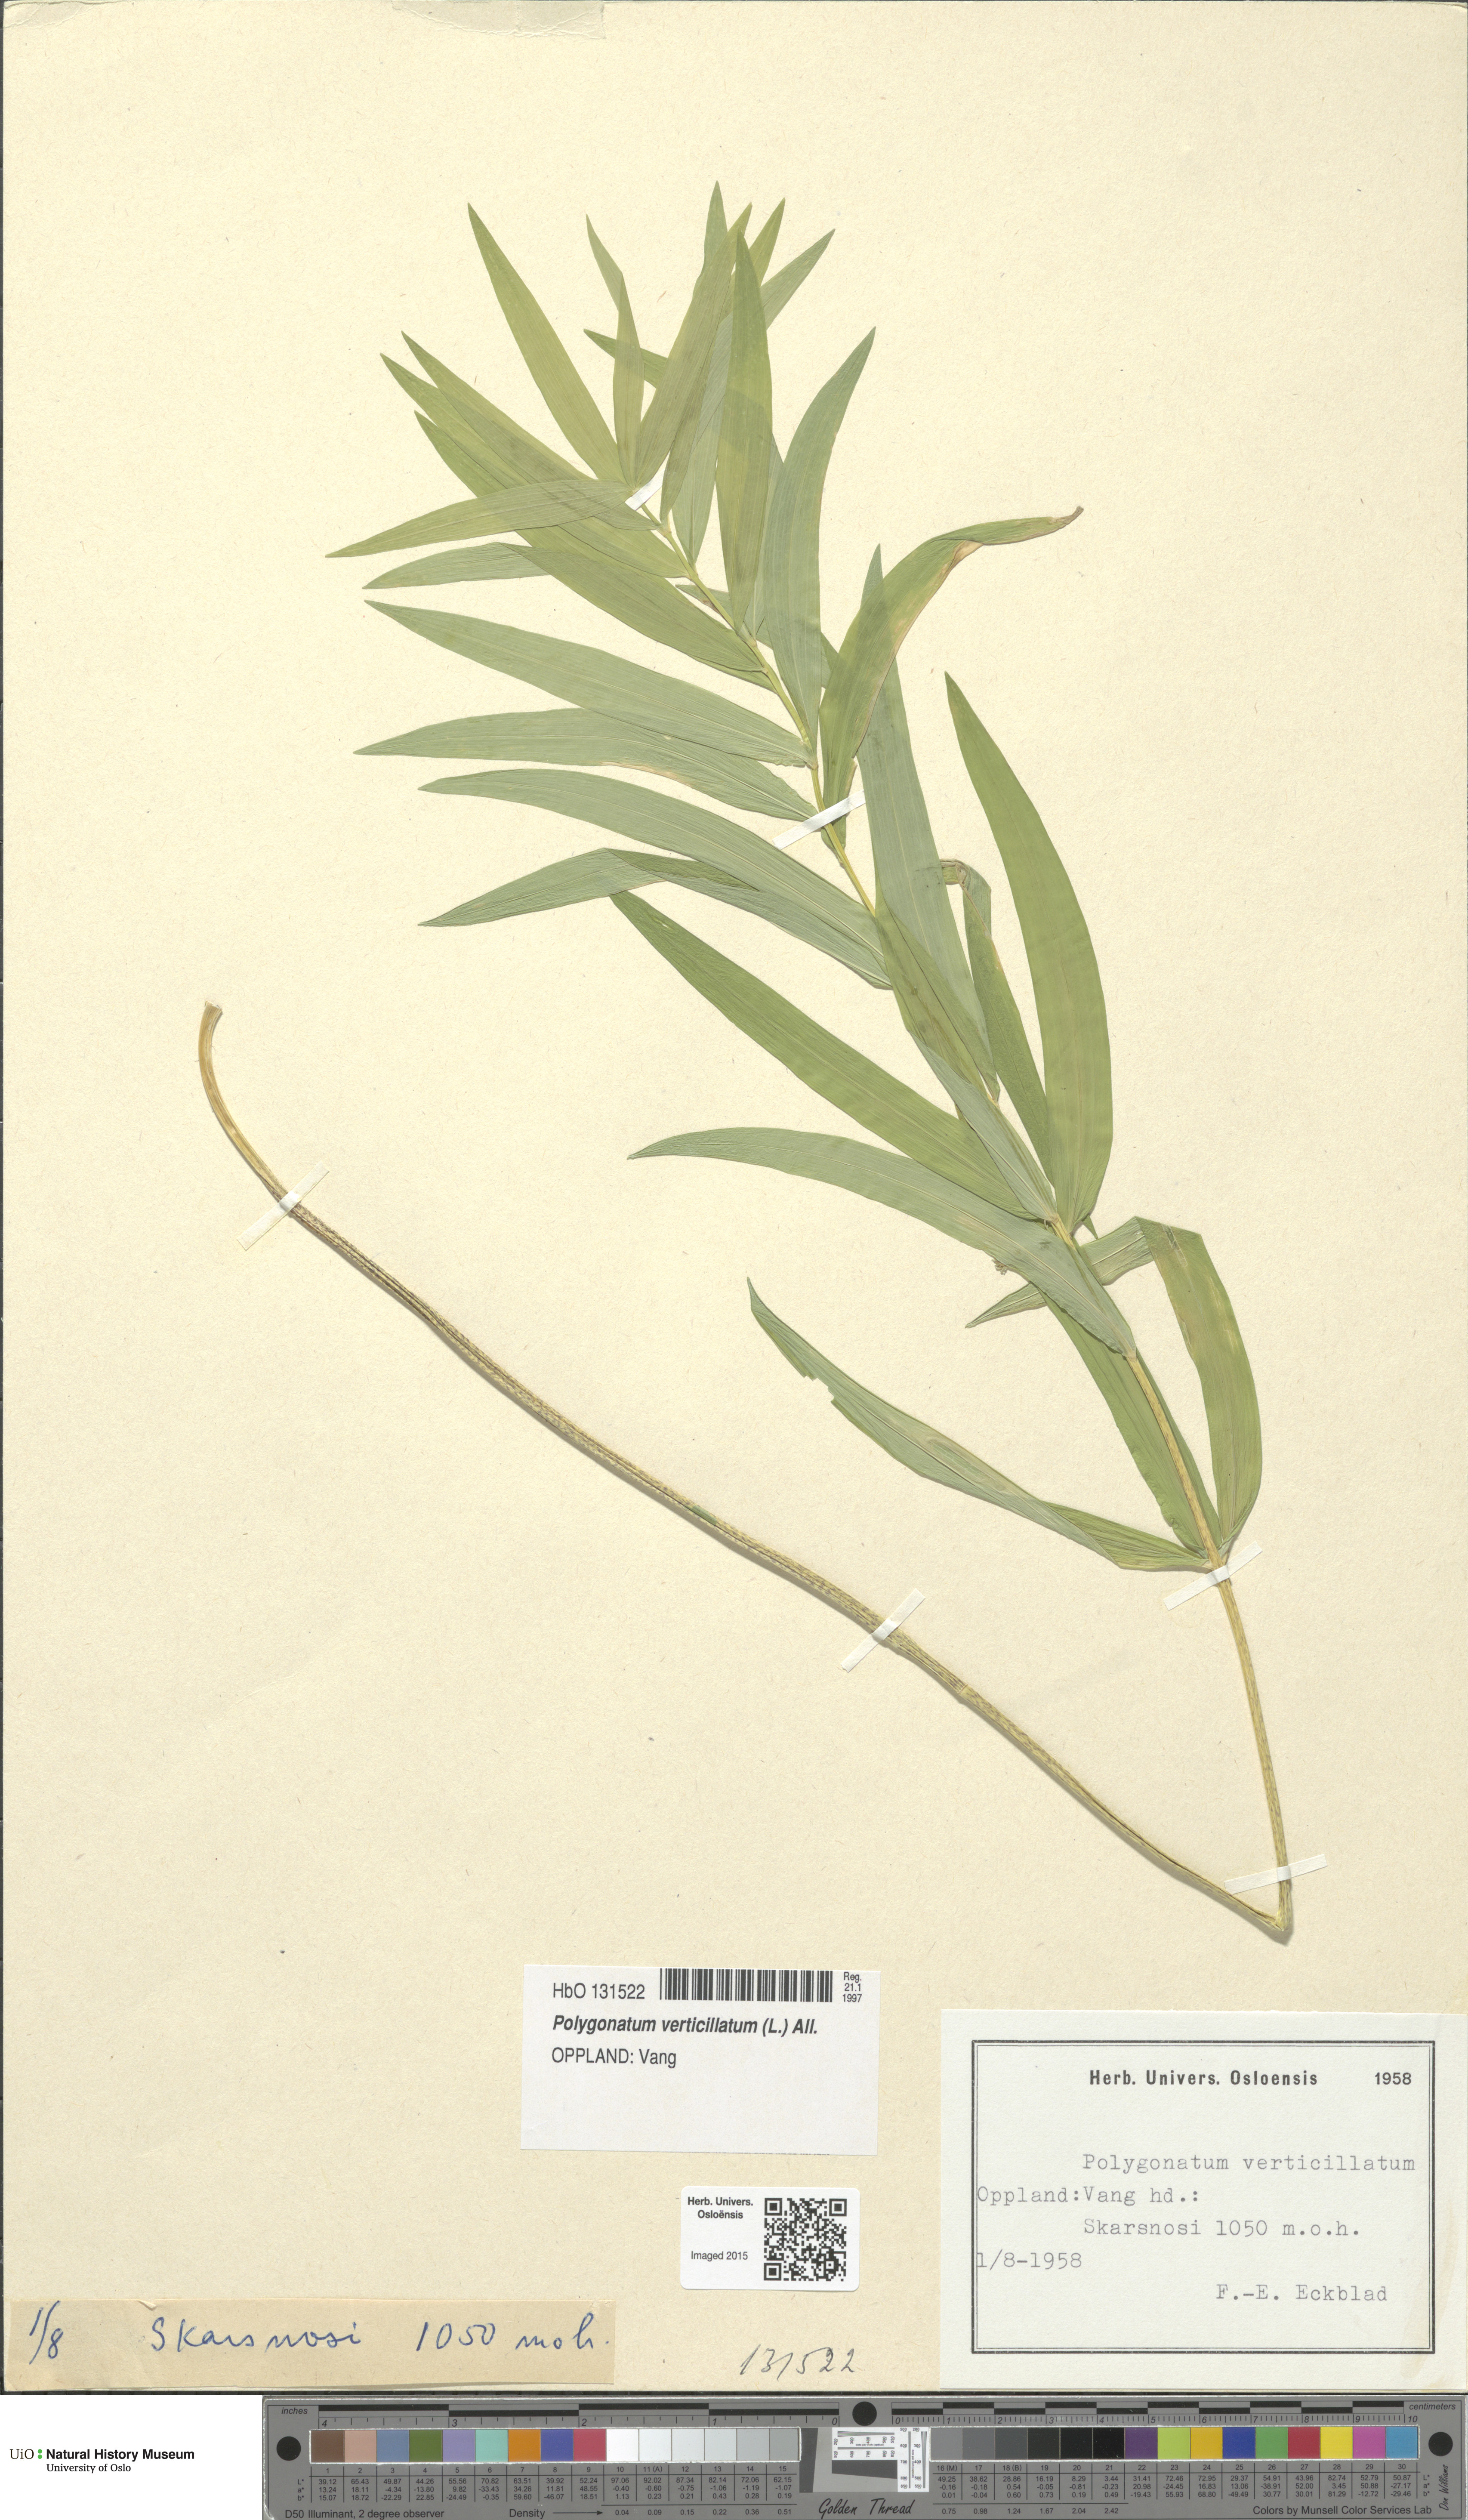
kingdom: Plantae
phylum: Tracheophyta
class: Liliopsida
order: Asparagales
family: Asparagaceae
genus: Polygonatum
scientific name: Polygonatum verticillatum
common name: Whorled solomon's-seal
